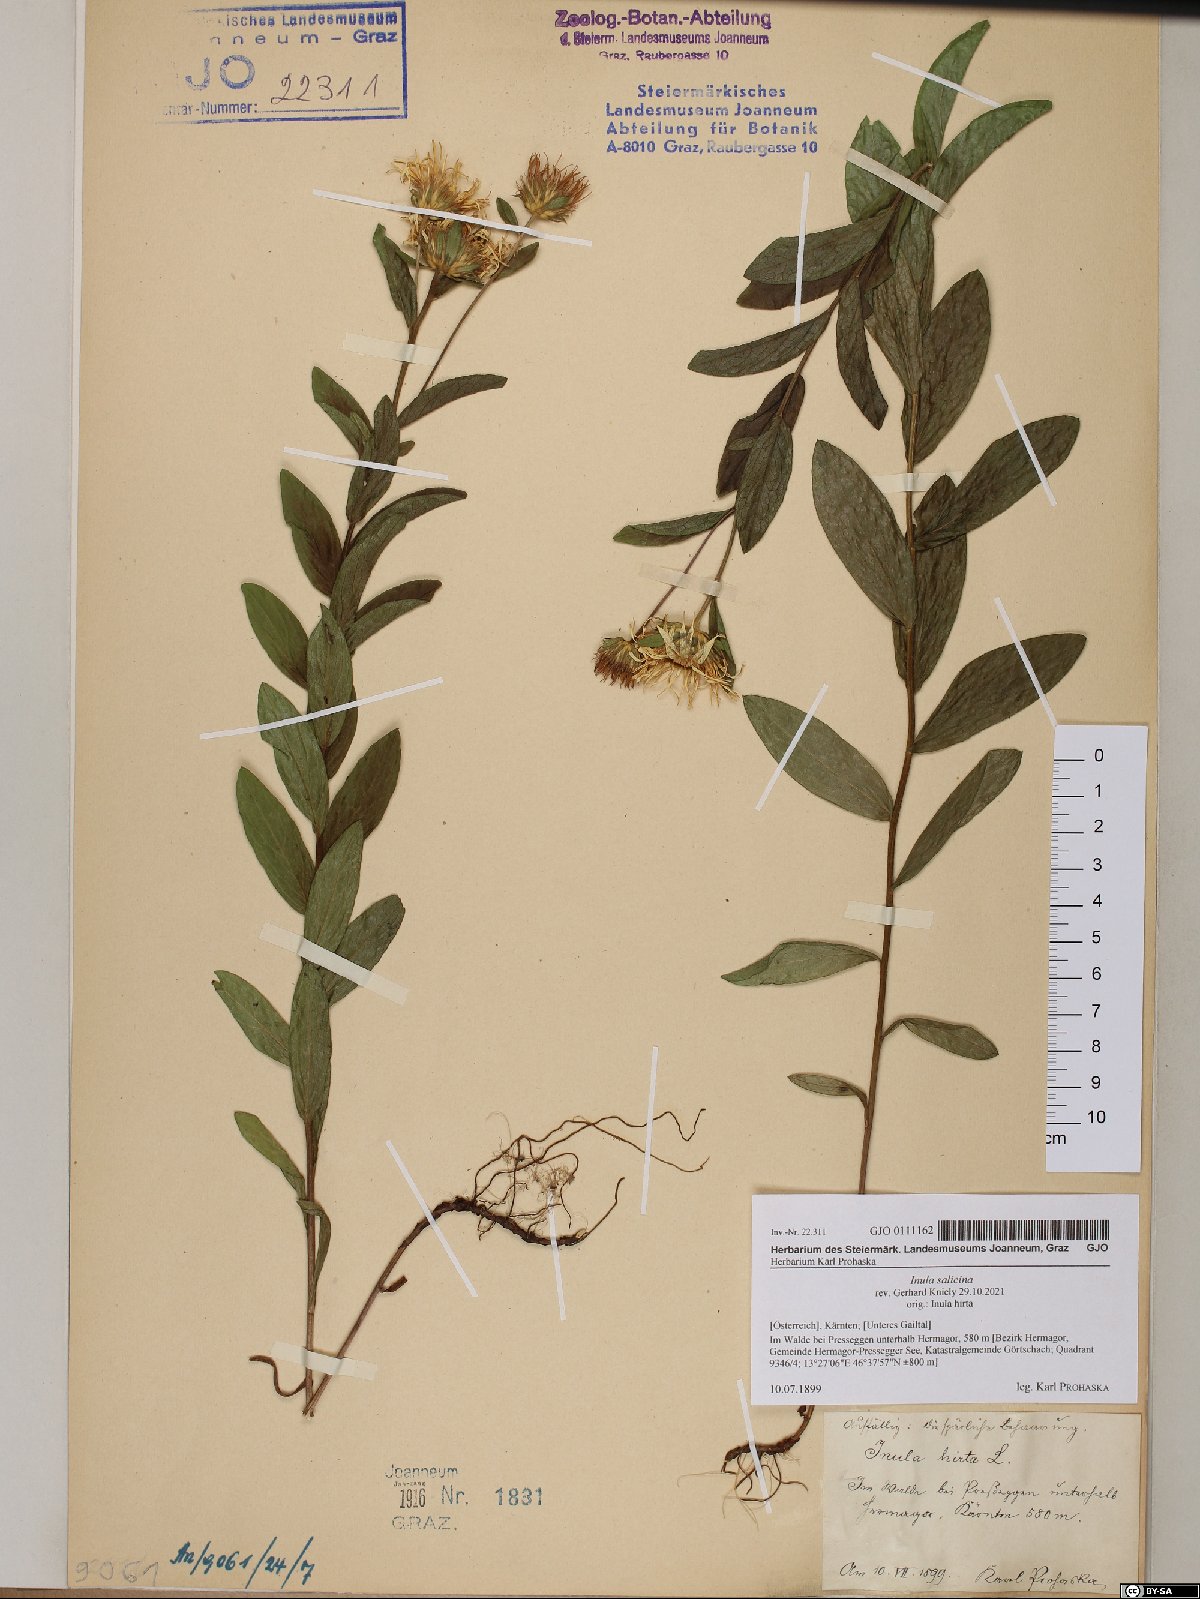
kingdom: Plantae
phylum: Tracheophyta
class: Magnoliopsida
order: Asterales
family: Asteraceae
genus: Pentanema
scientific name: Pentanema salicinum
